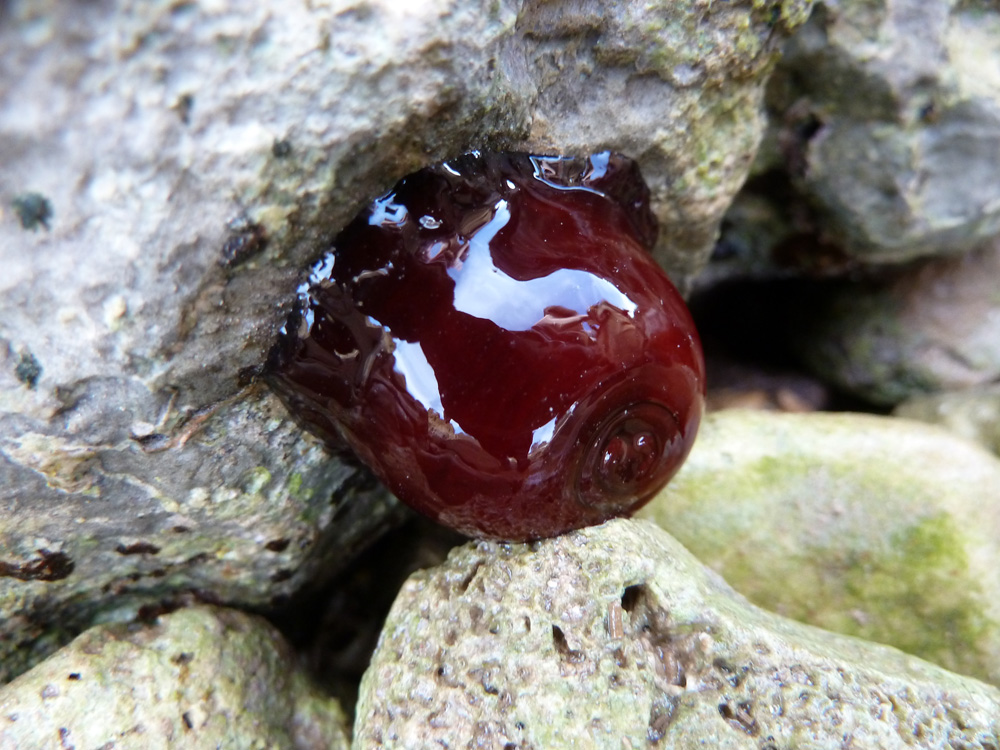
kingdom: Animalia
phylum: Cnidaria
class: Anthozoa
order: Actiniaria
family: Actiniidae
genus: Actinia
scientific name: Actinia equina
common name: Beadlet anemone
